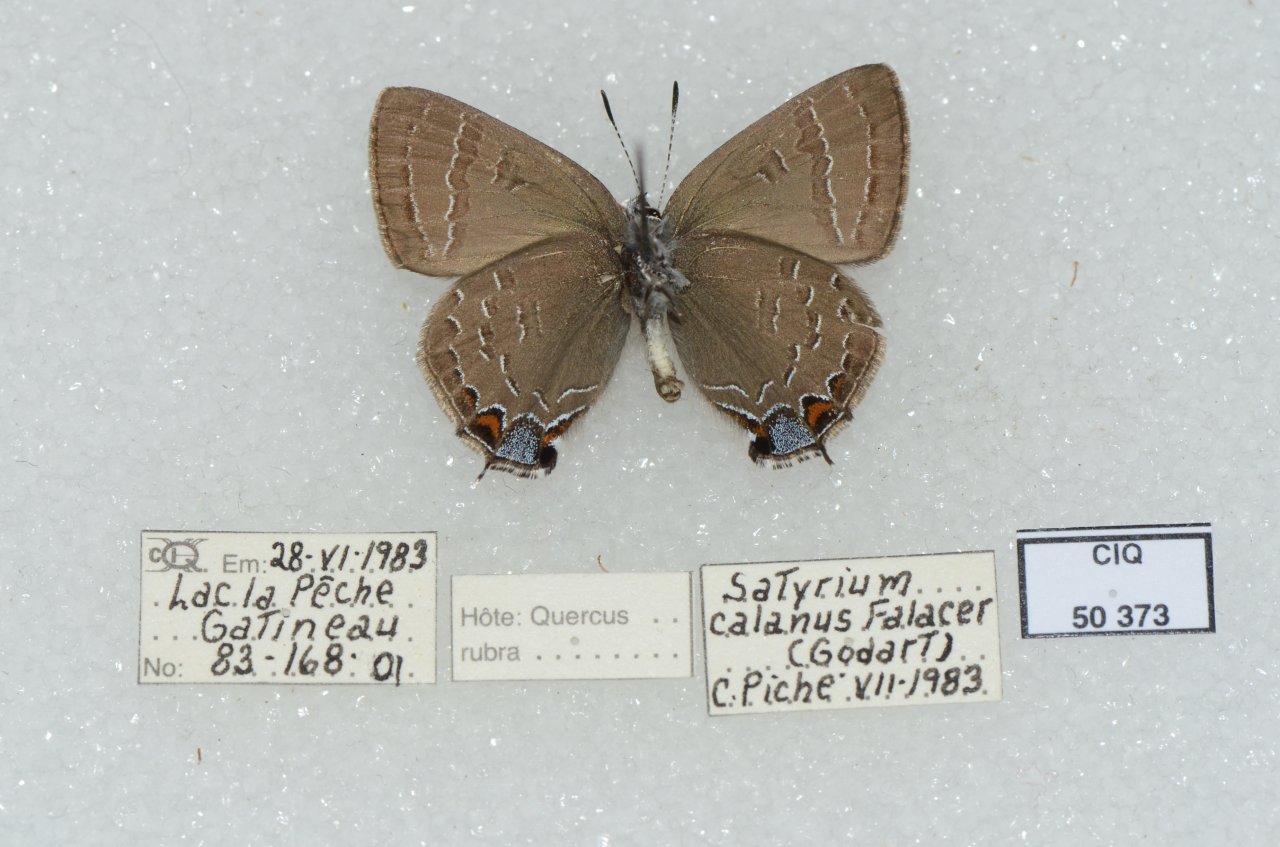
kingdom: Animalia
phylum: Arthropoda
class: Insecta
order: Lepidoptera
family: Lycaenidae
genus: Satyrium
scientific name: Satyrium calanus
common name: Banded Hairstreak
